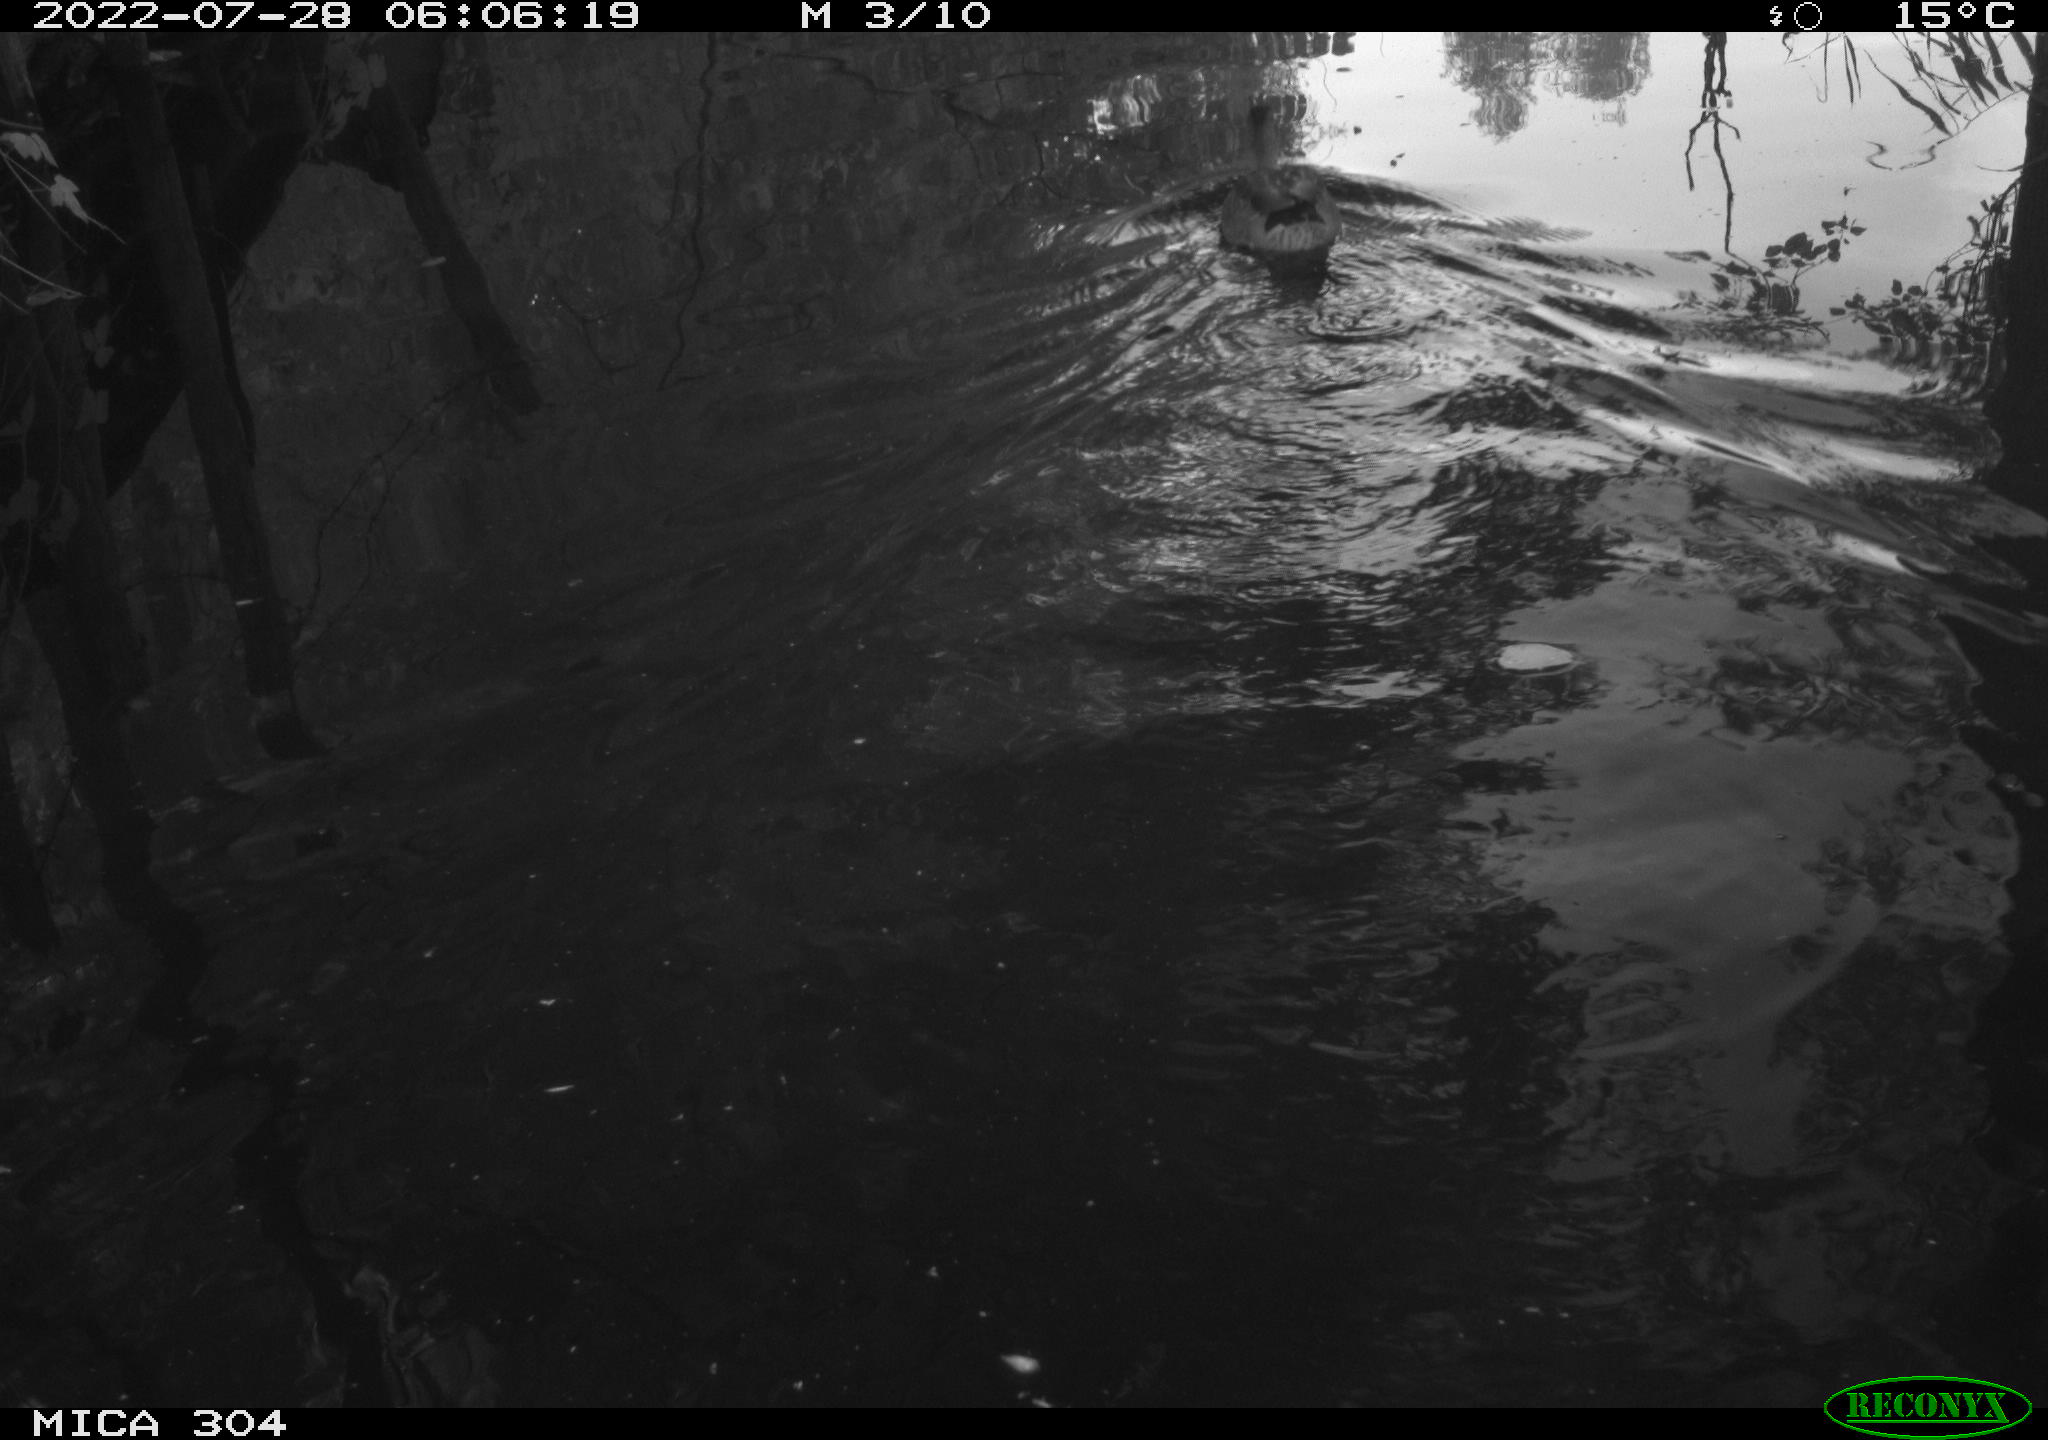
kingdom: Animalia
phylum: Chordata
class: Aves
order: Anseriformes
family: Anatidae
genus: Anas
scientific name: Anas platyrhynchos
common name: Mallard
